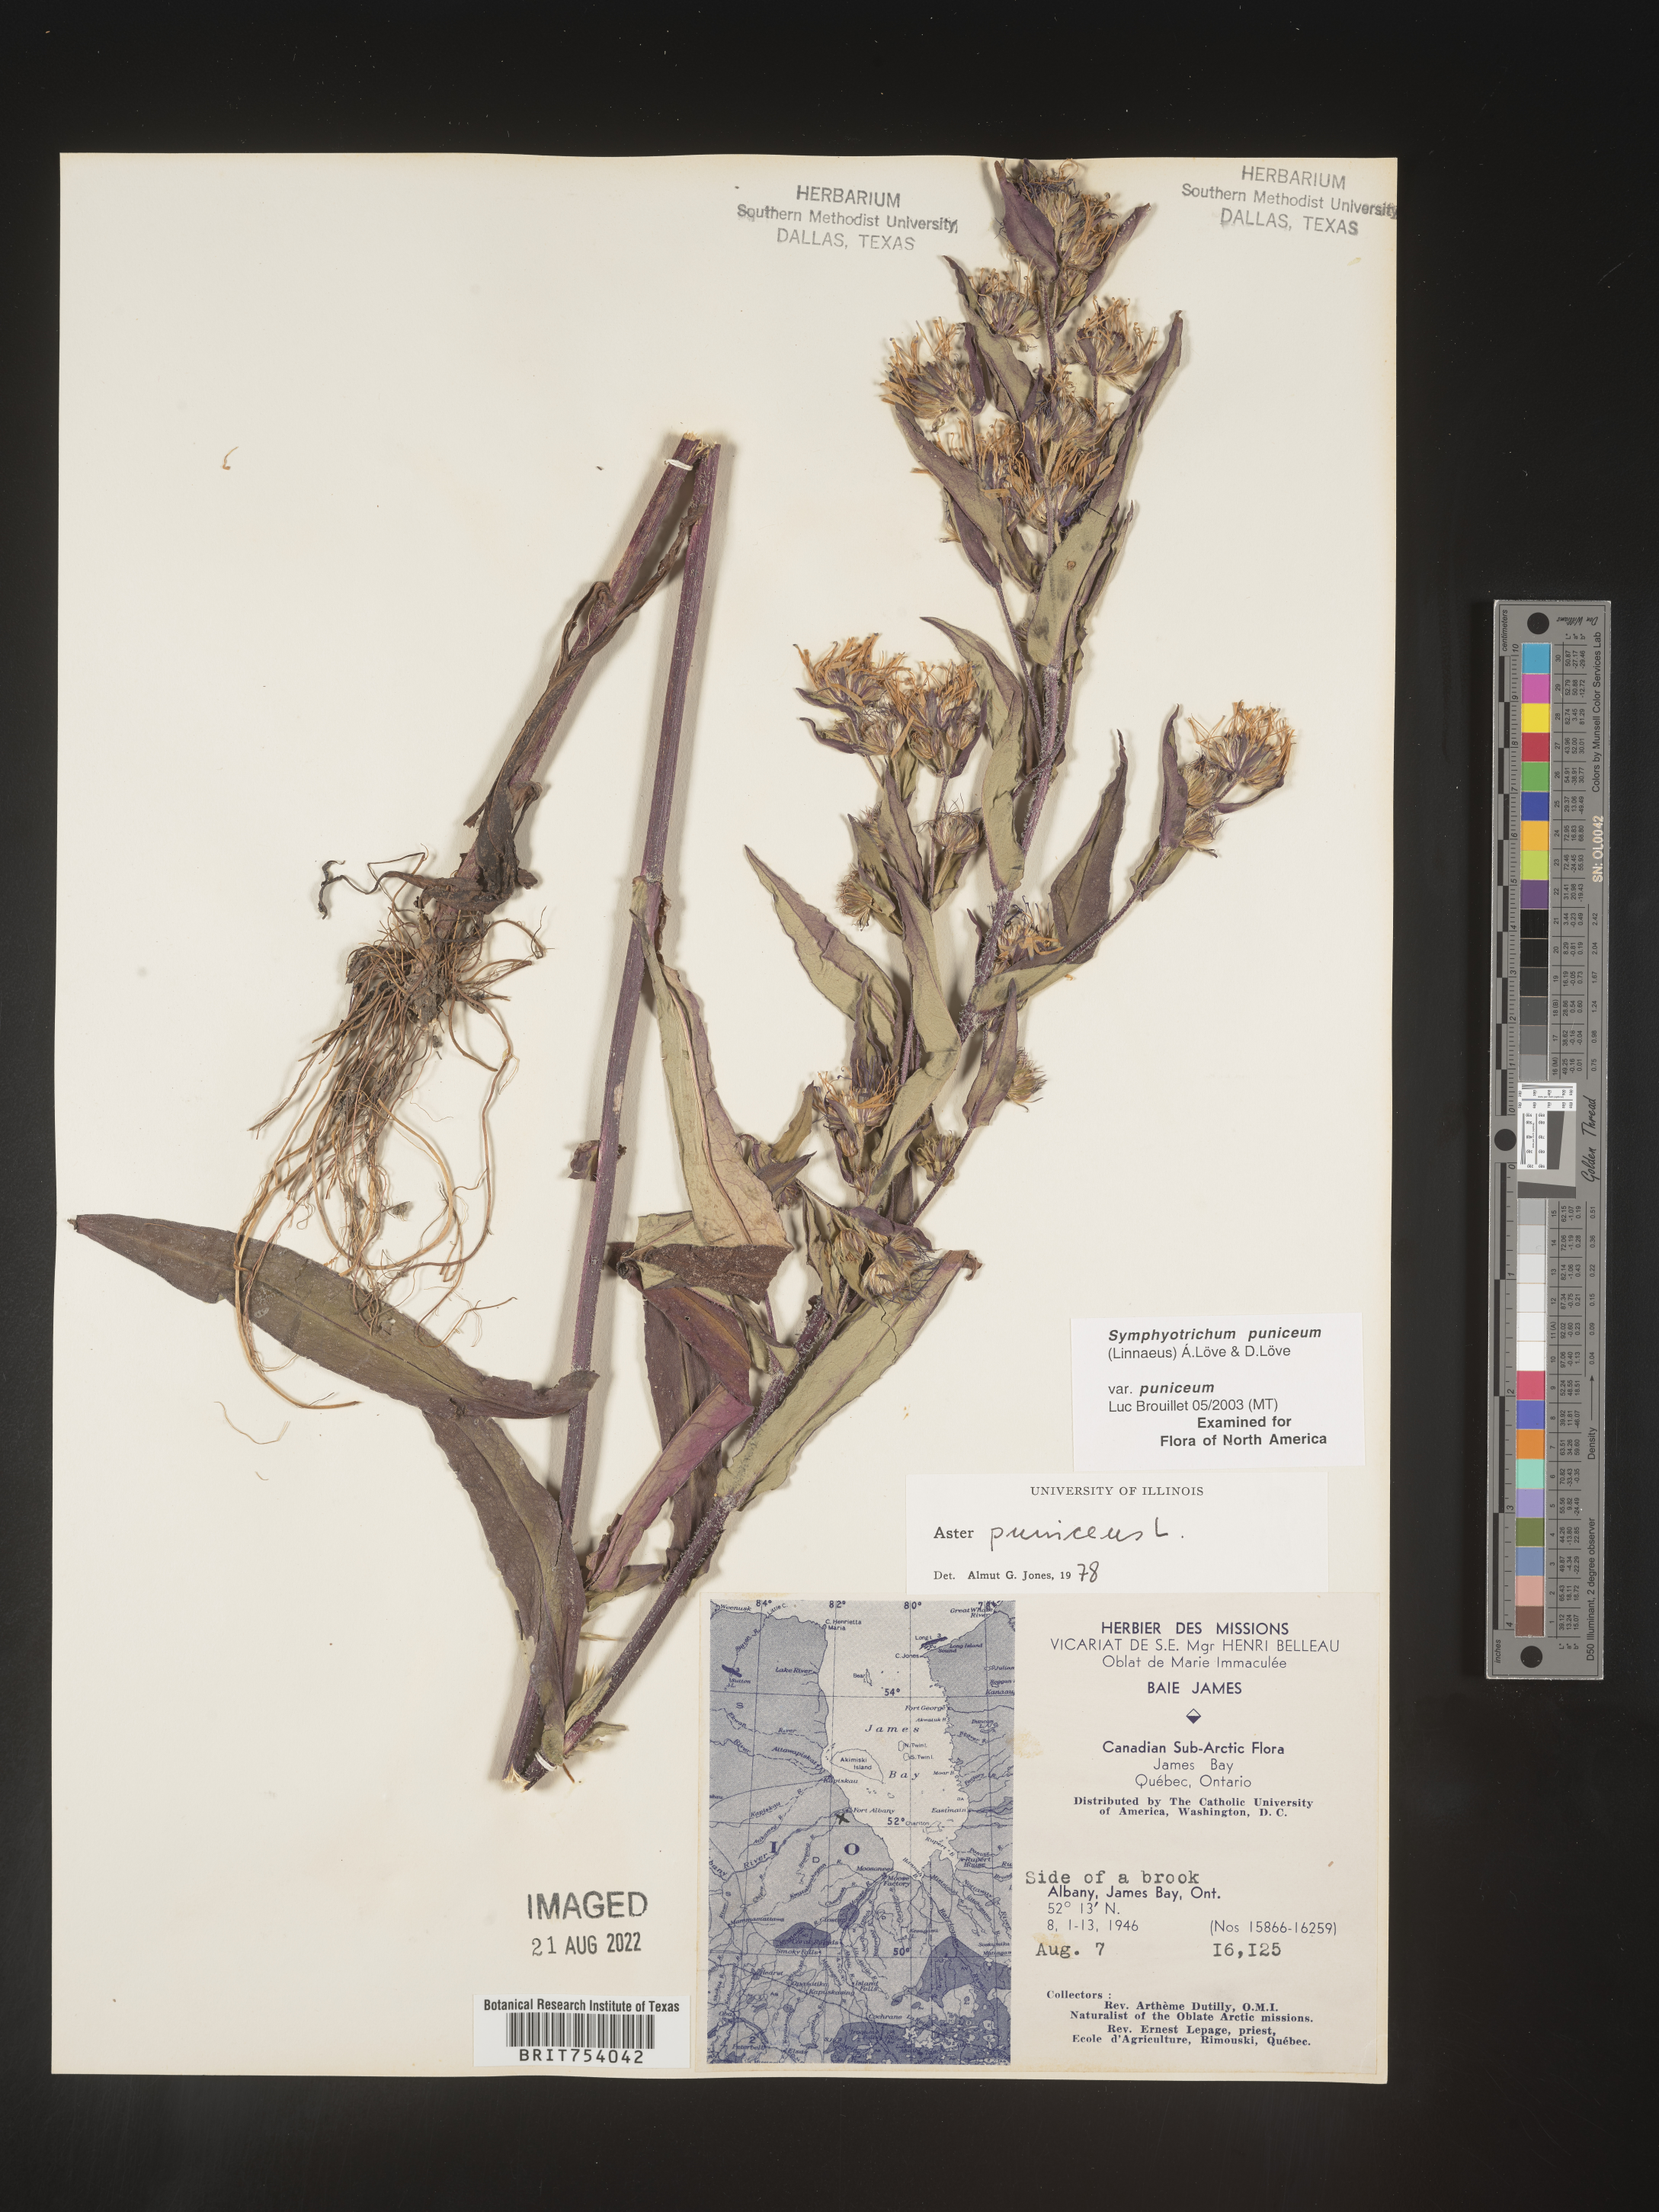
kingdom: Plantae
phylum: Tracheophyta
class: Magnoliopsida
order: Asterales
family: Asteraceae
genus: Symphyotrichum
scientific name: Symphyotrichum puniceum
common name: Bog aster
